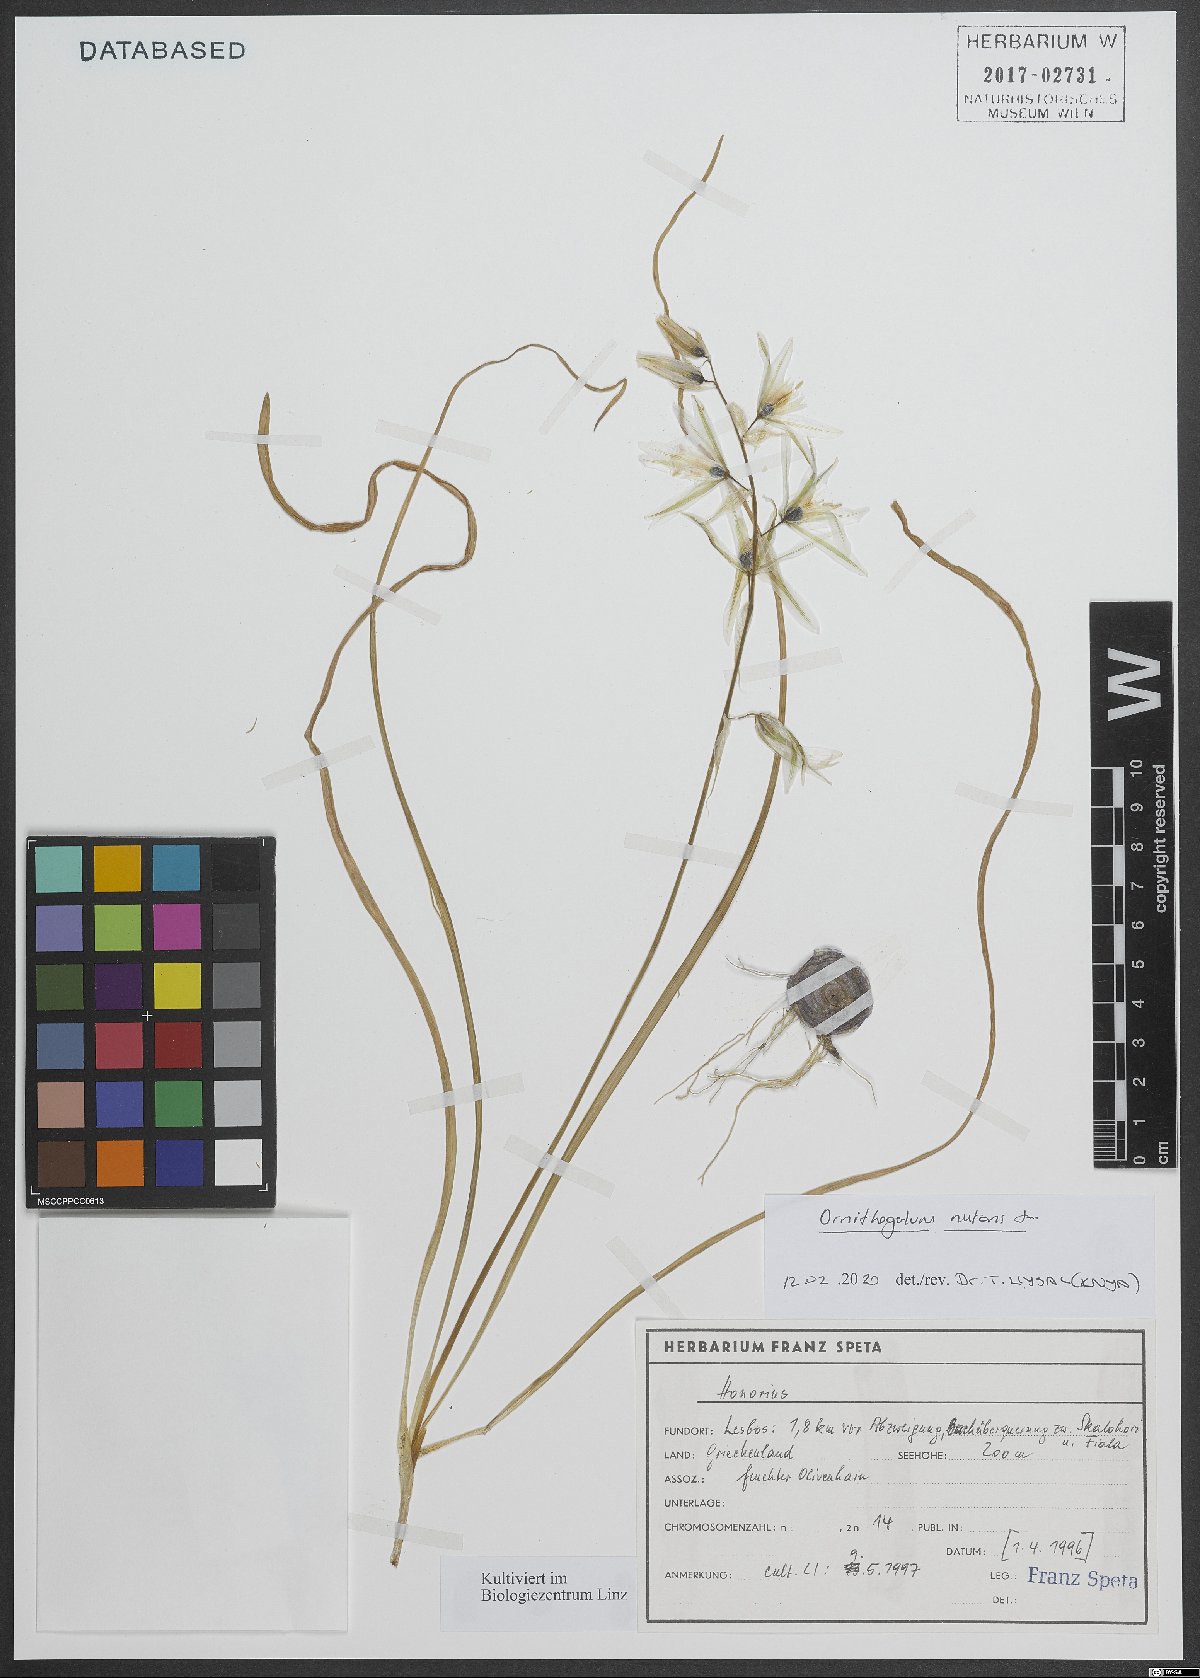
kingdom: Plantae
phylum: Tracheophyta
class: Liliopsida
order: Asparagales
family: Asparagaceae
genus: Ornithogalum
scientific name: Ornithogalum nutans
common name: Drooping star-of-bethlehem
